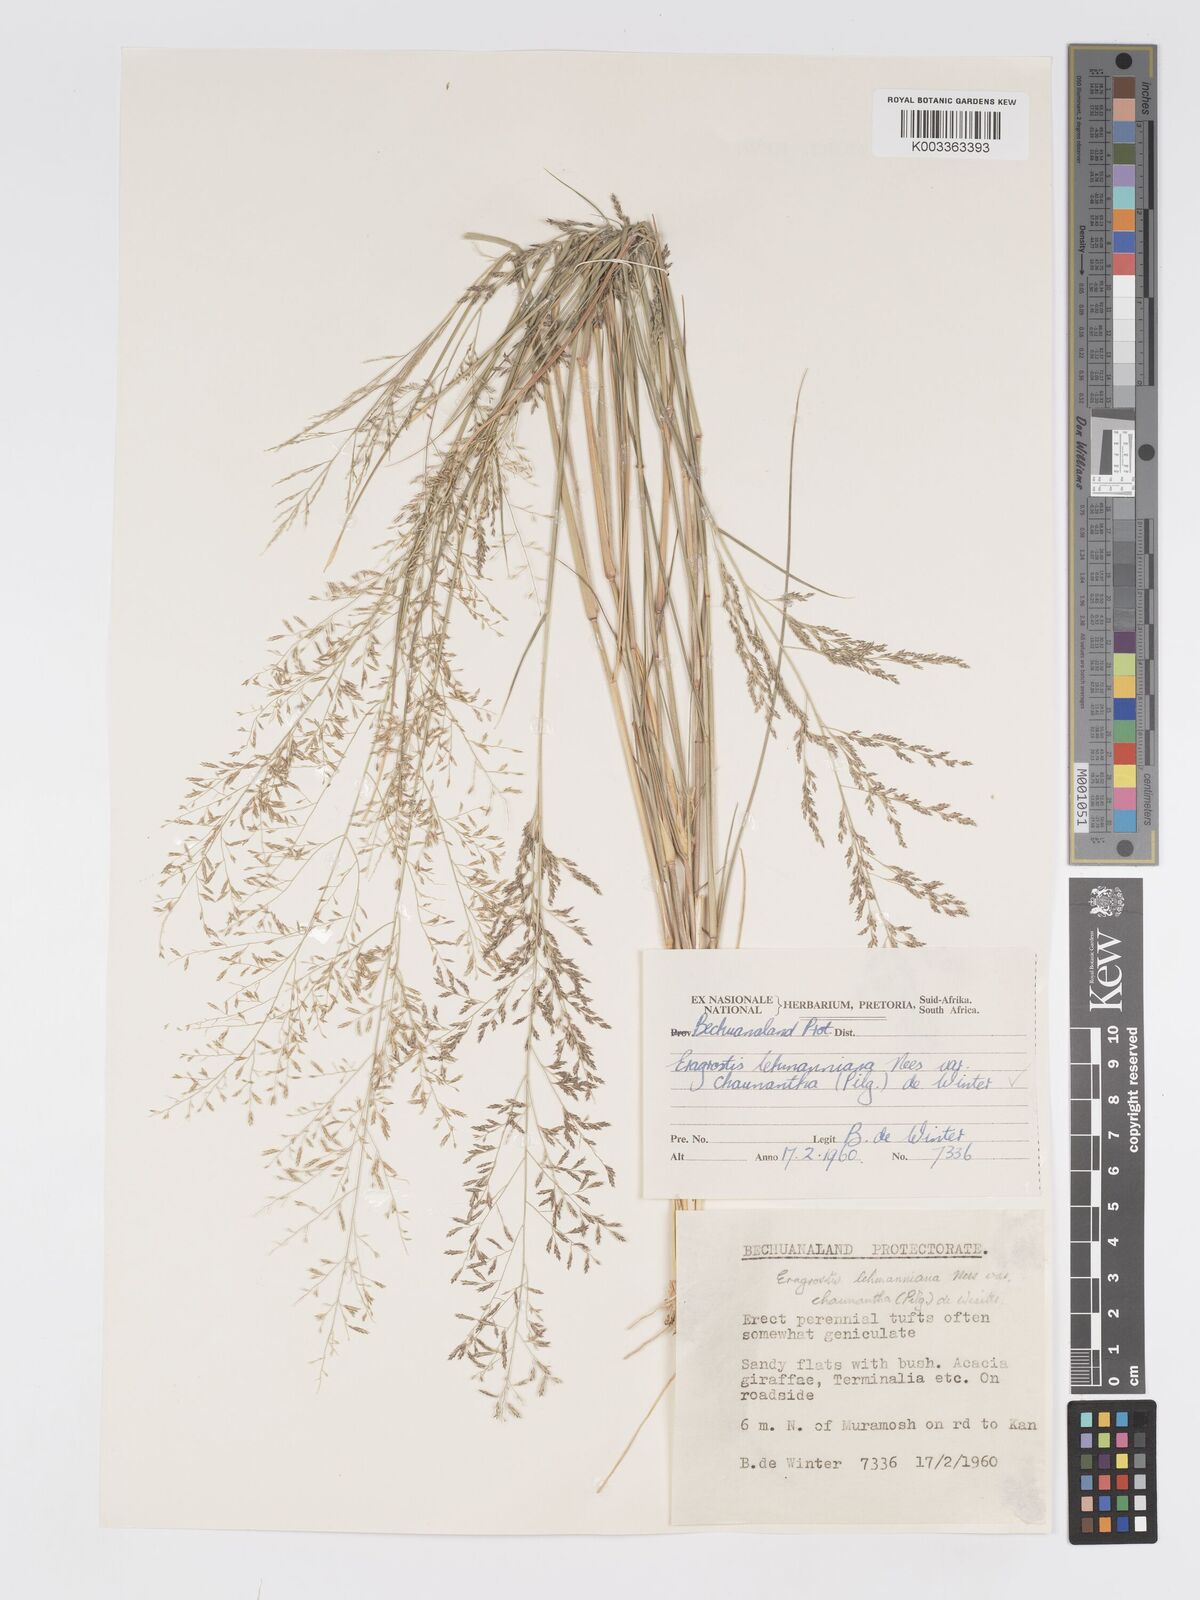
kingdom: Plantae
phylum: Tracheophyta
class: Liliopsida
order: Poales
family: Poaceae
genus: Eragrostis
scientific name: Eragrostis lehmanniana
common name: Lehmann lovegrass
